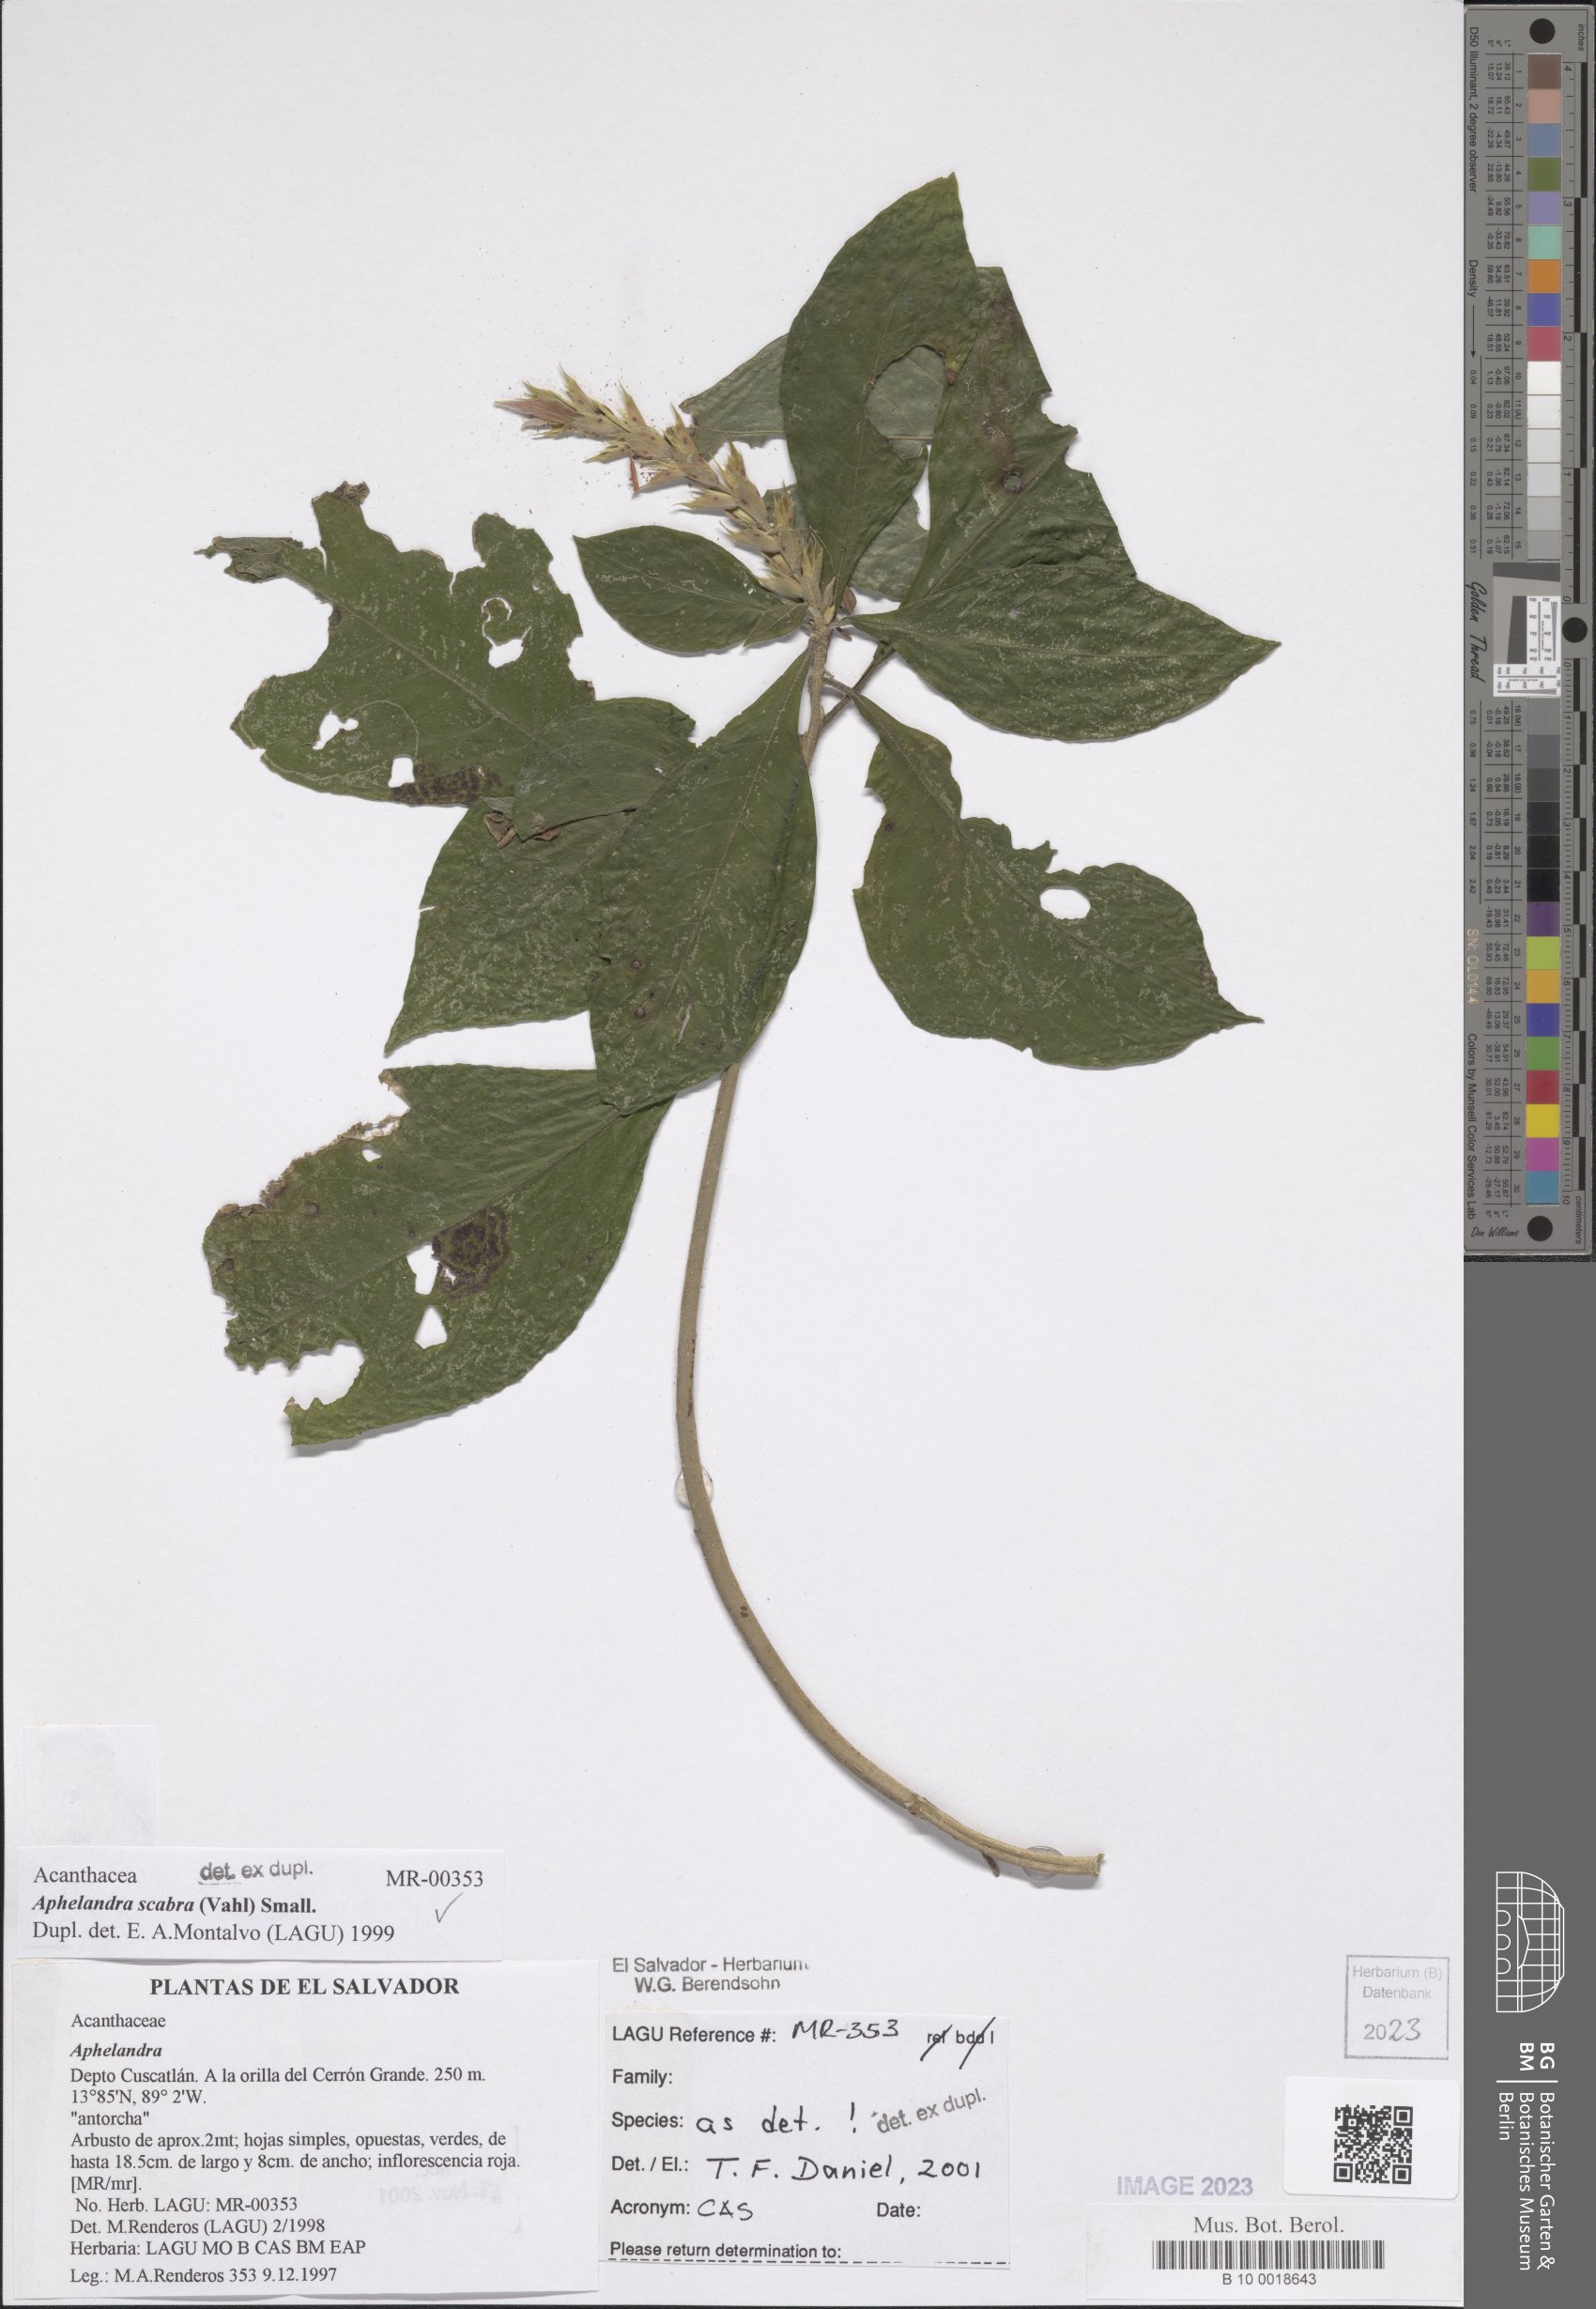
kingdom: Plantae
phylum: Tracheophyta
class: Magnoliopsida
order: Lamiales
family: Acanthaceae
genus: Aphelandra
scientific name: Aphelandra scabra
